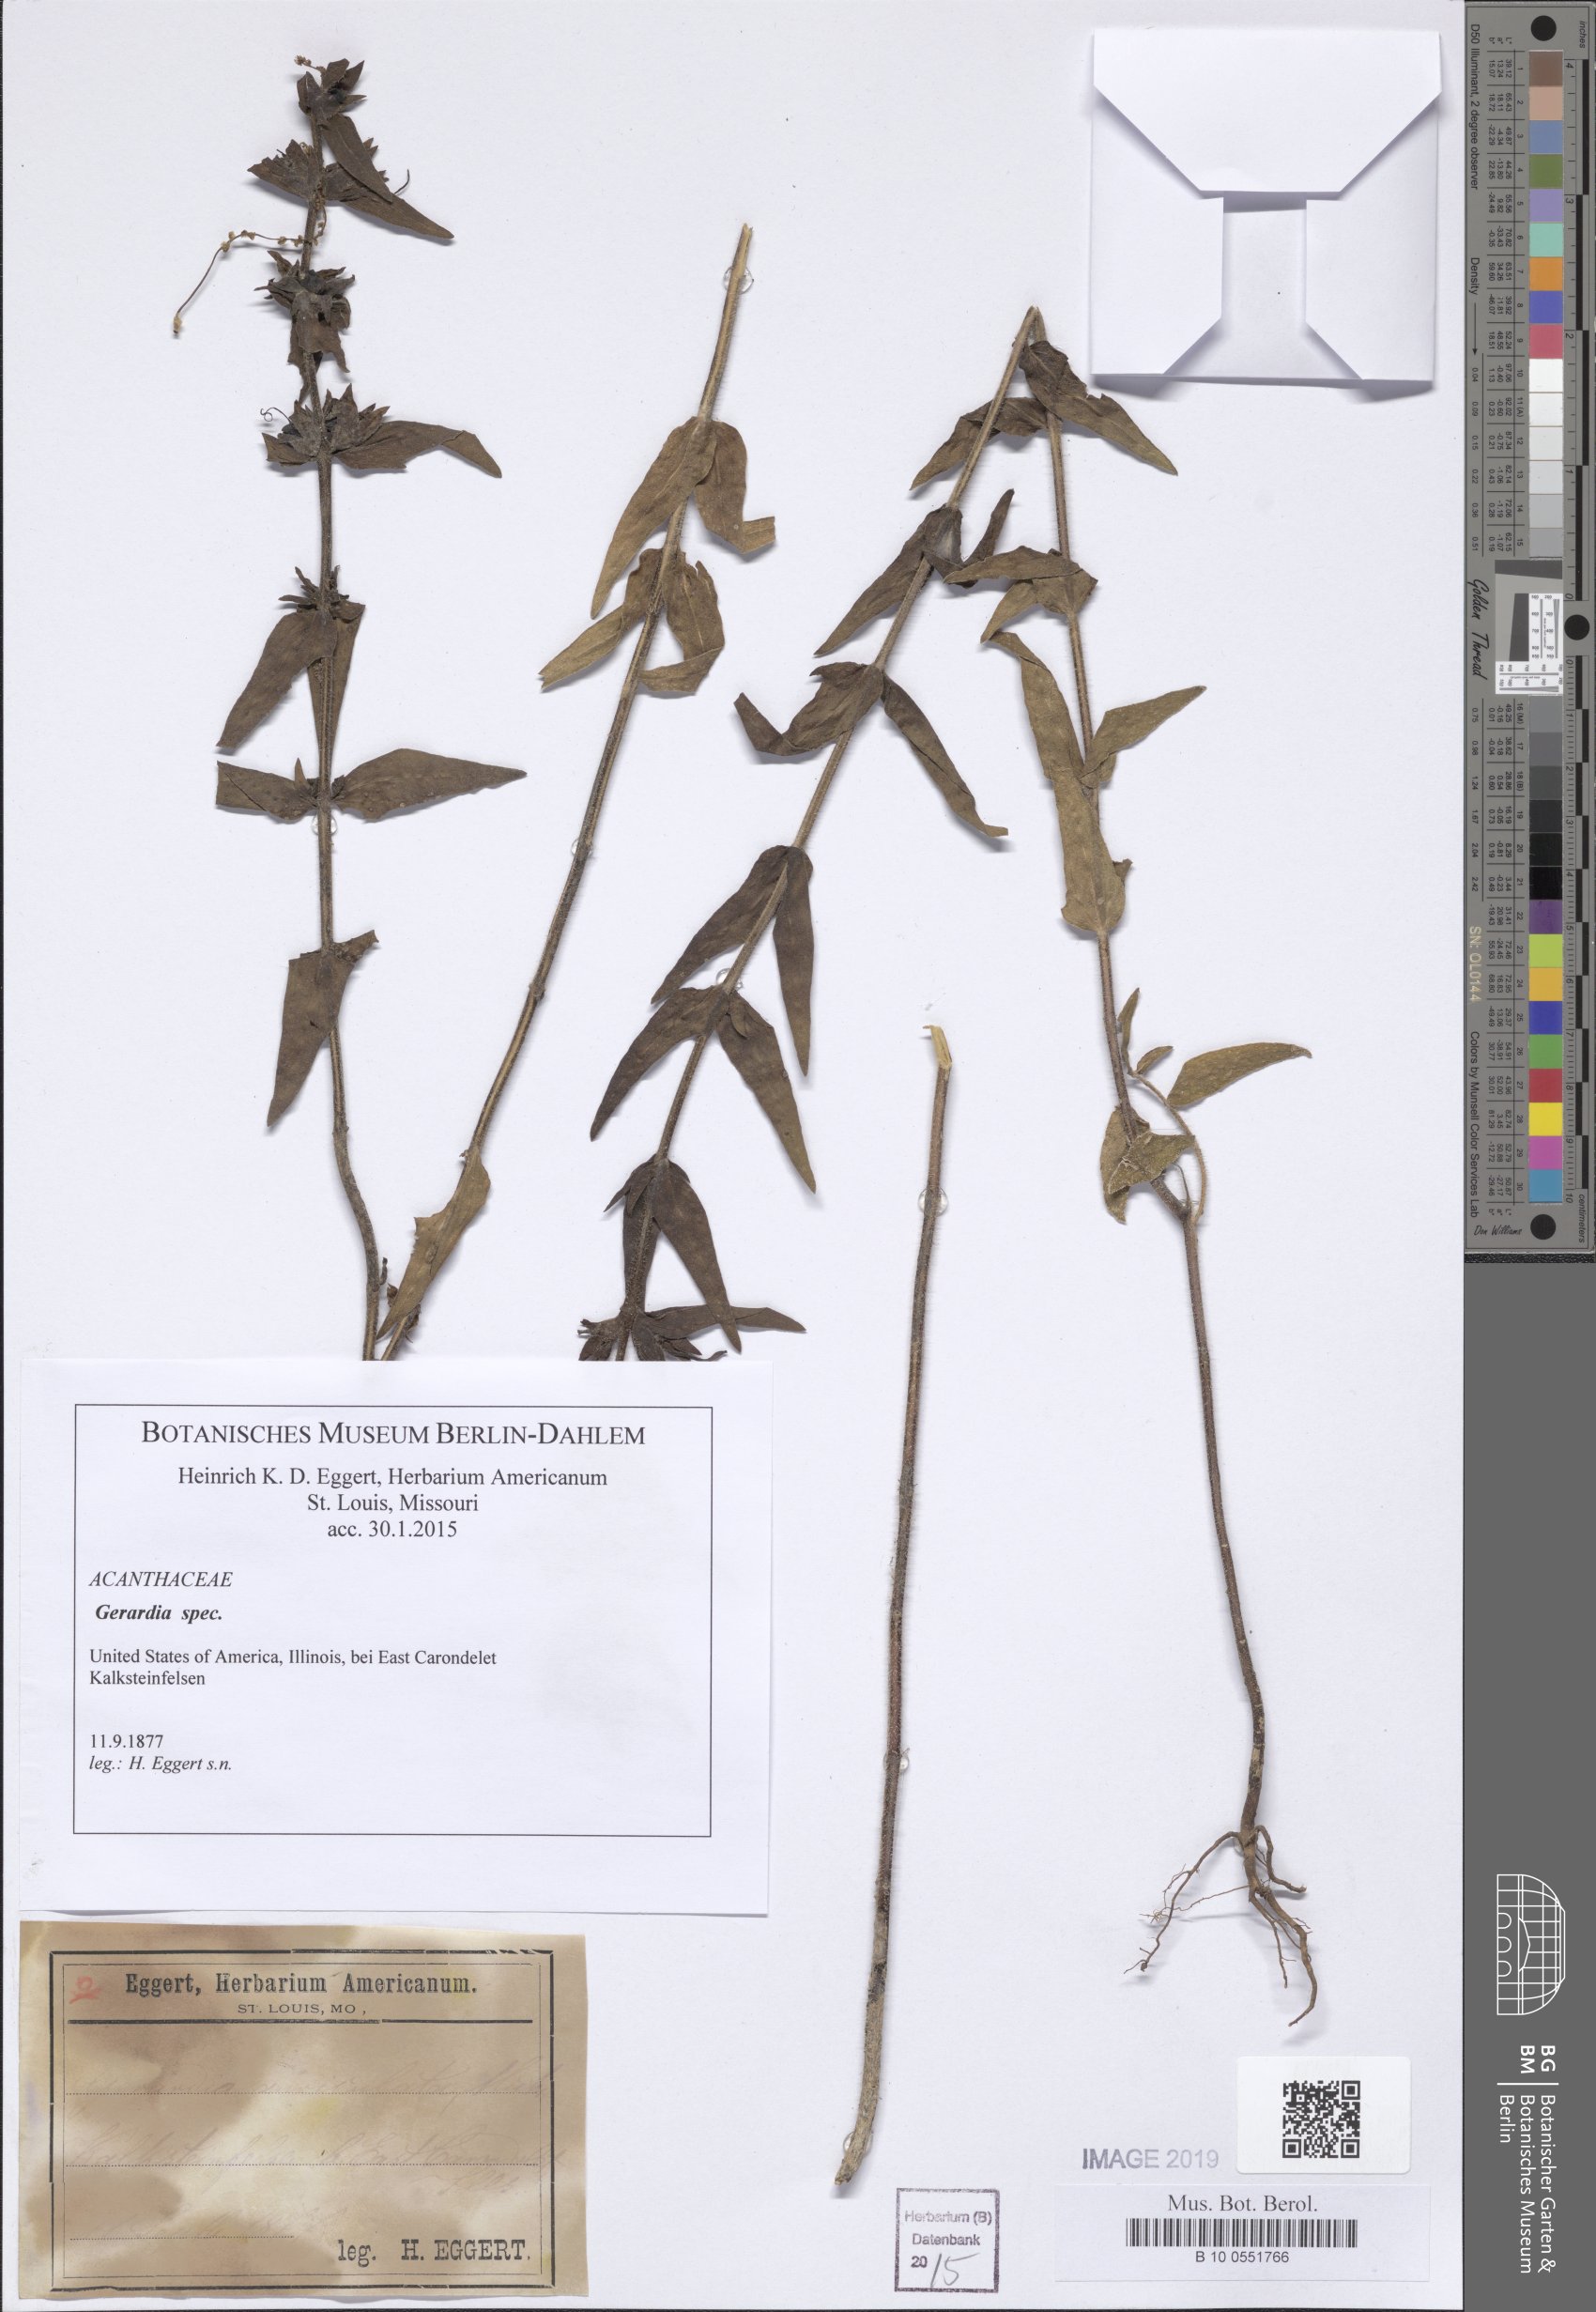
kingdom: Plantae
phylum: Tracheophyta
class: Magnoliopsida
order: Lamiales
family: Acanthaceae
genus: Stenandrium
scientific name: Stenandrium
